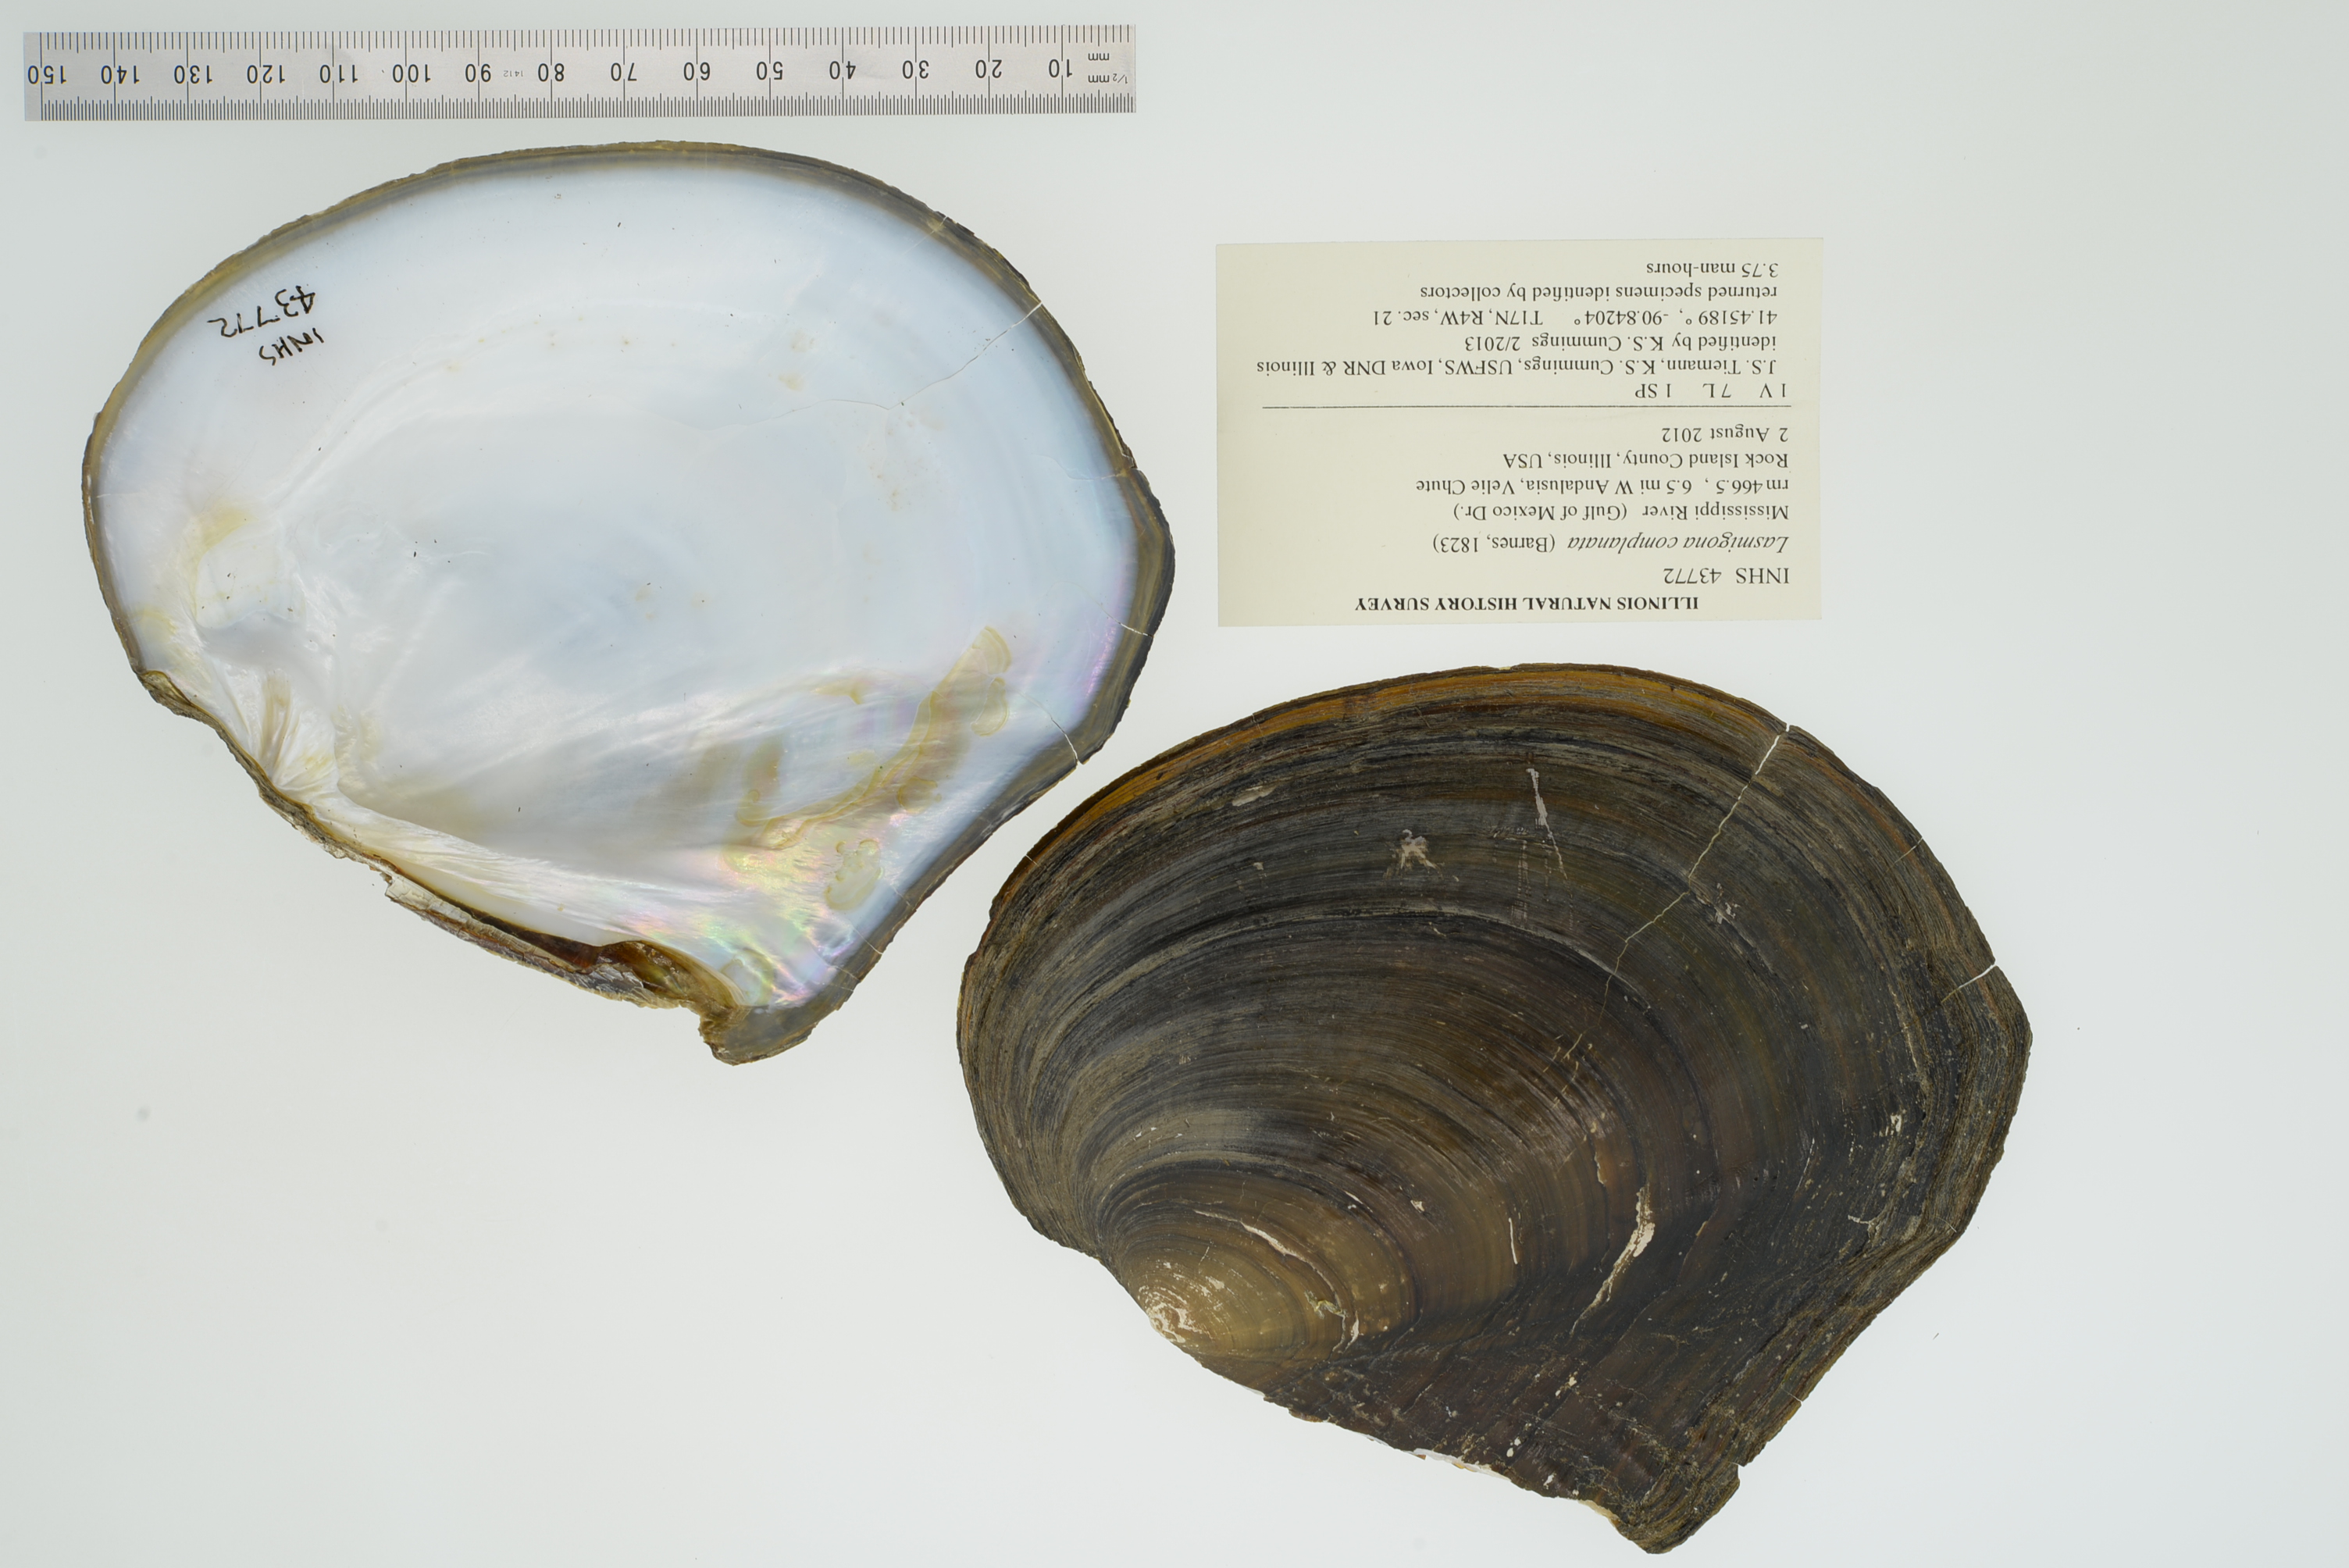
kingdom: Animalia
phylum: Mollusca
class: Bivalvia
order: Unionida
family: Unionidae
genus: Lasmigona
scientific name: Lasmigona complanata
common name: White heelsplitter
